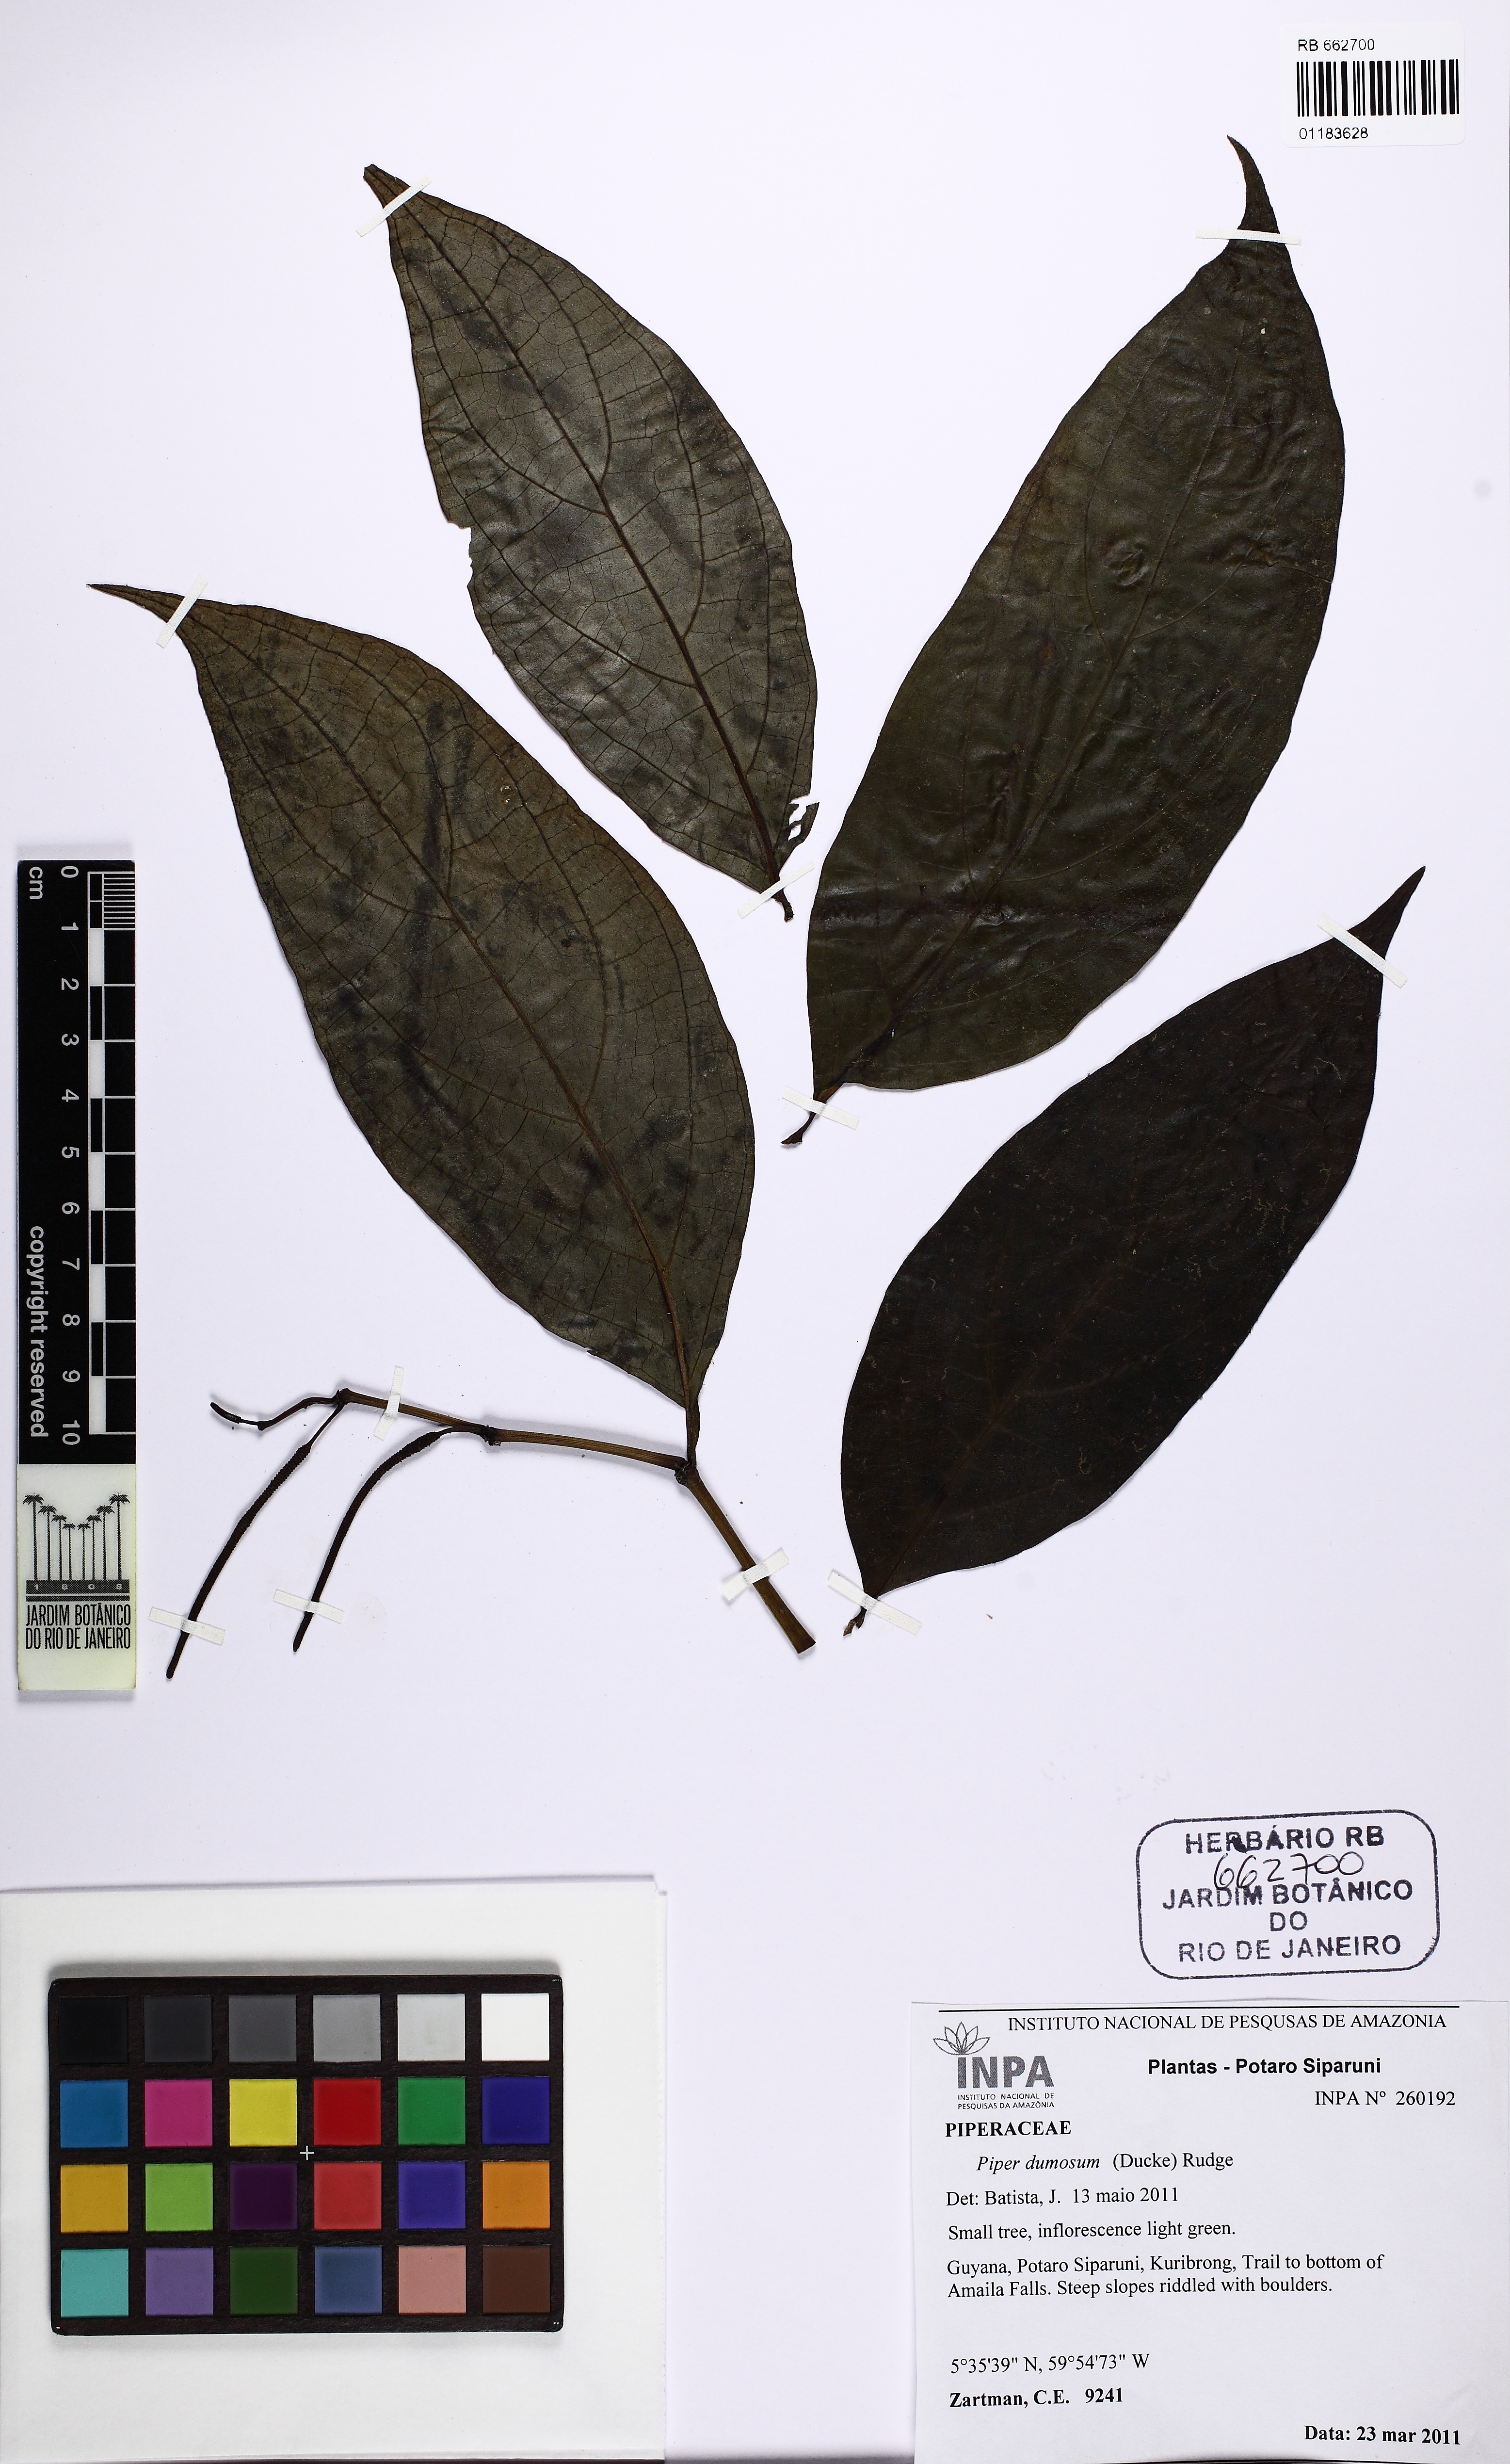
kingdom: Plantae
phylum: Tracheophyta
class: Magnoliopsida
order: Piperales
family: Piperaceae
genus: Piper
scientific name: Piper dumosum
